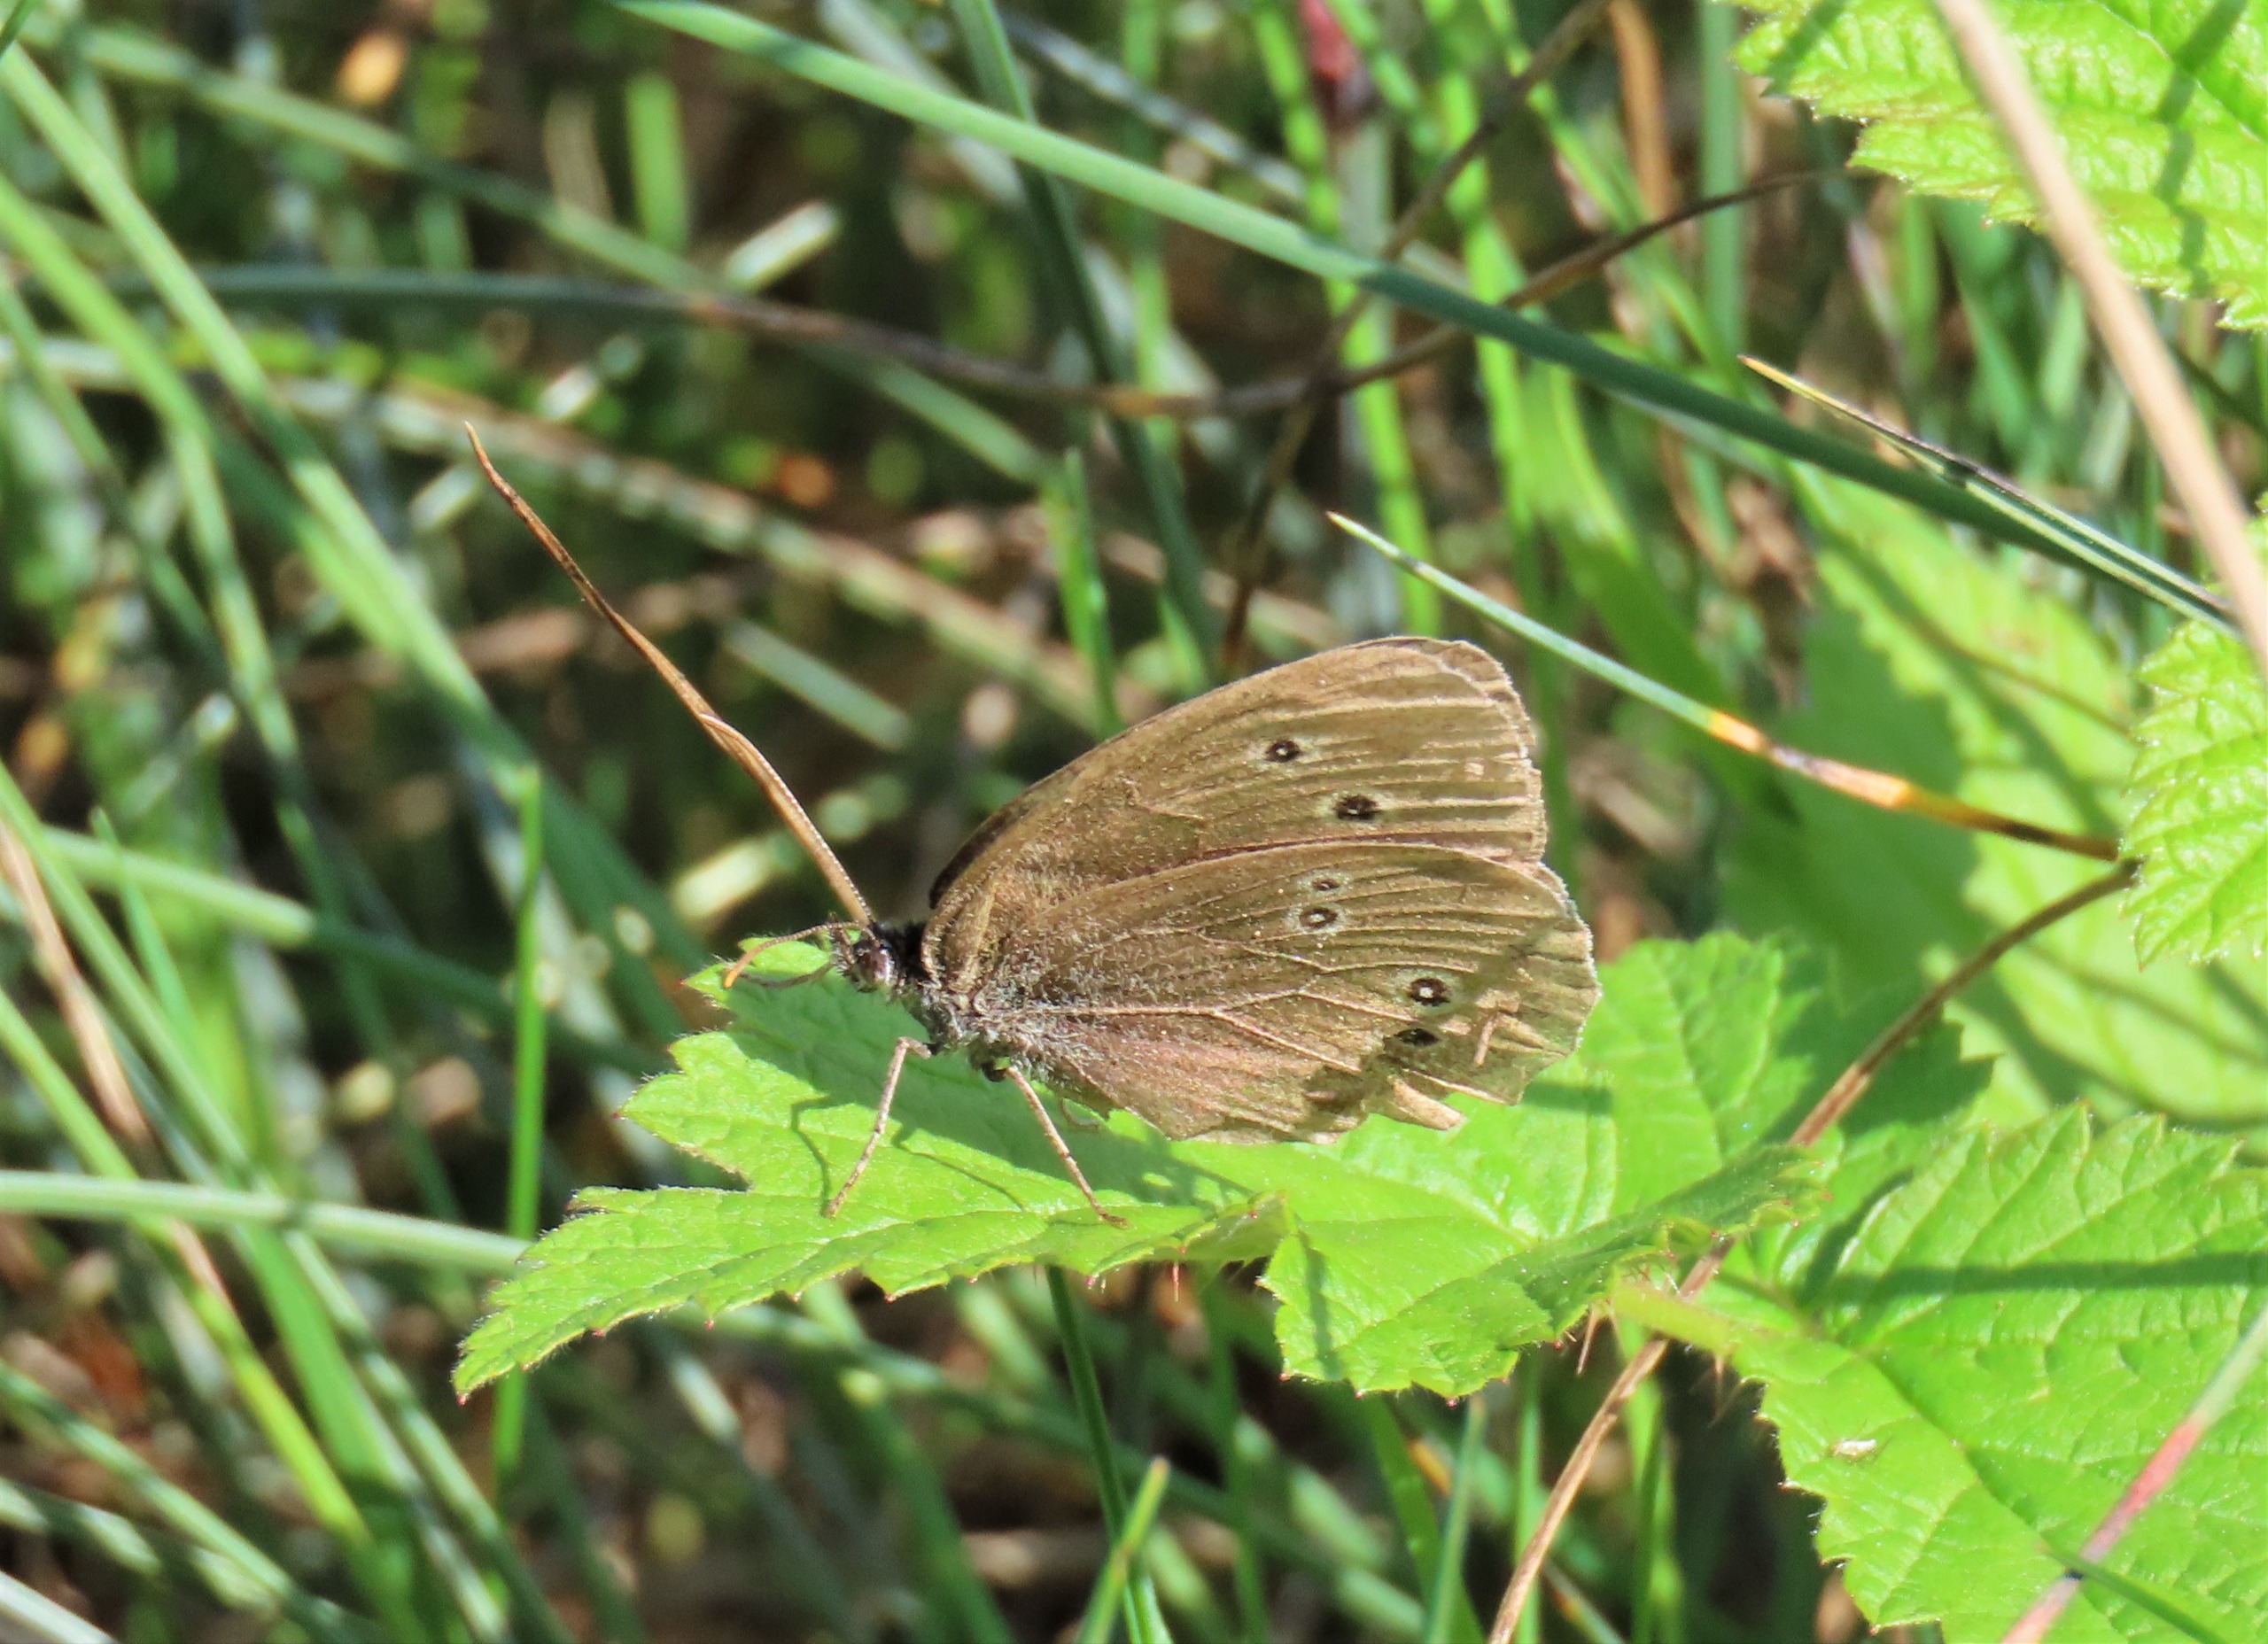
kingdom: Animalia
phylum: Arthropoda
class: Insecta
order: Lepidoptera
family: Nymphalidae
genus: Aphantopus
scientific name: Aphantopus hyperantus
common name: Engrandøje
